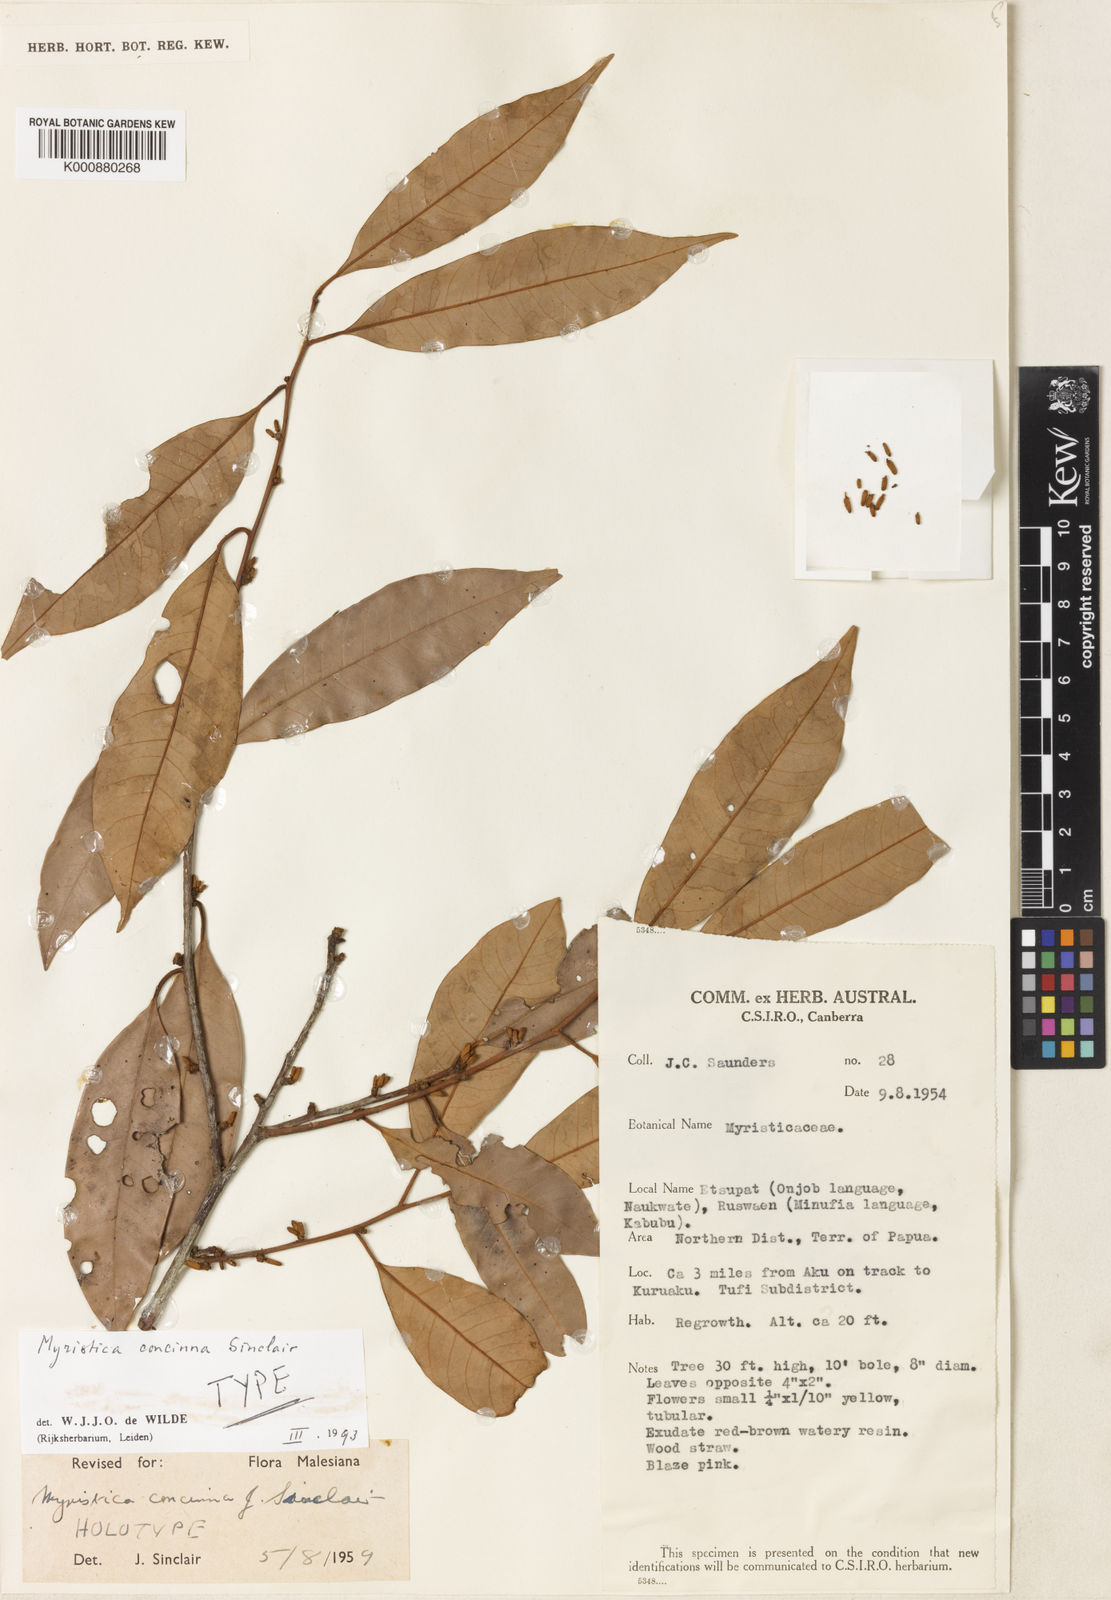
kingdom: Plantae
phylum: Tracheophyta
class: Magnoliopsida
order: Magnoliales
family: Myristicaceae
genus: Myristica
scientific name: Myristica concinna
